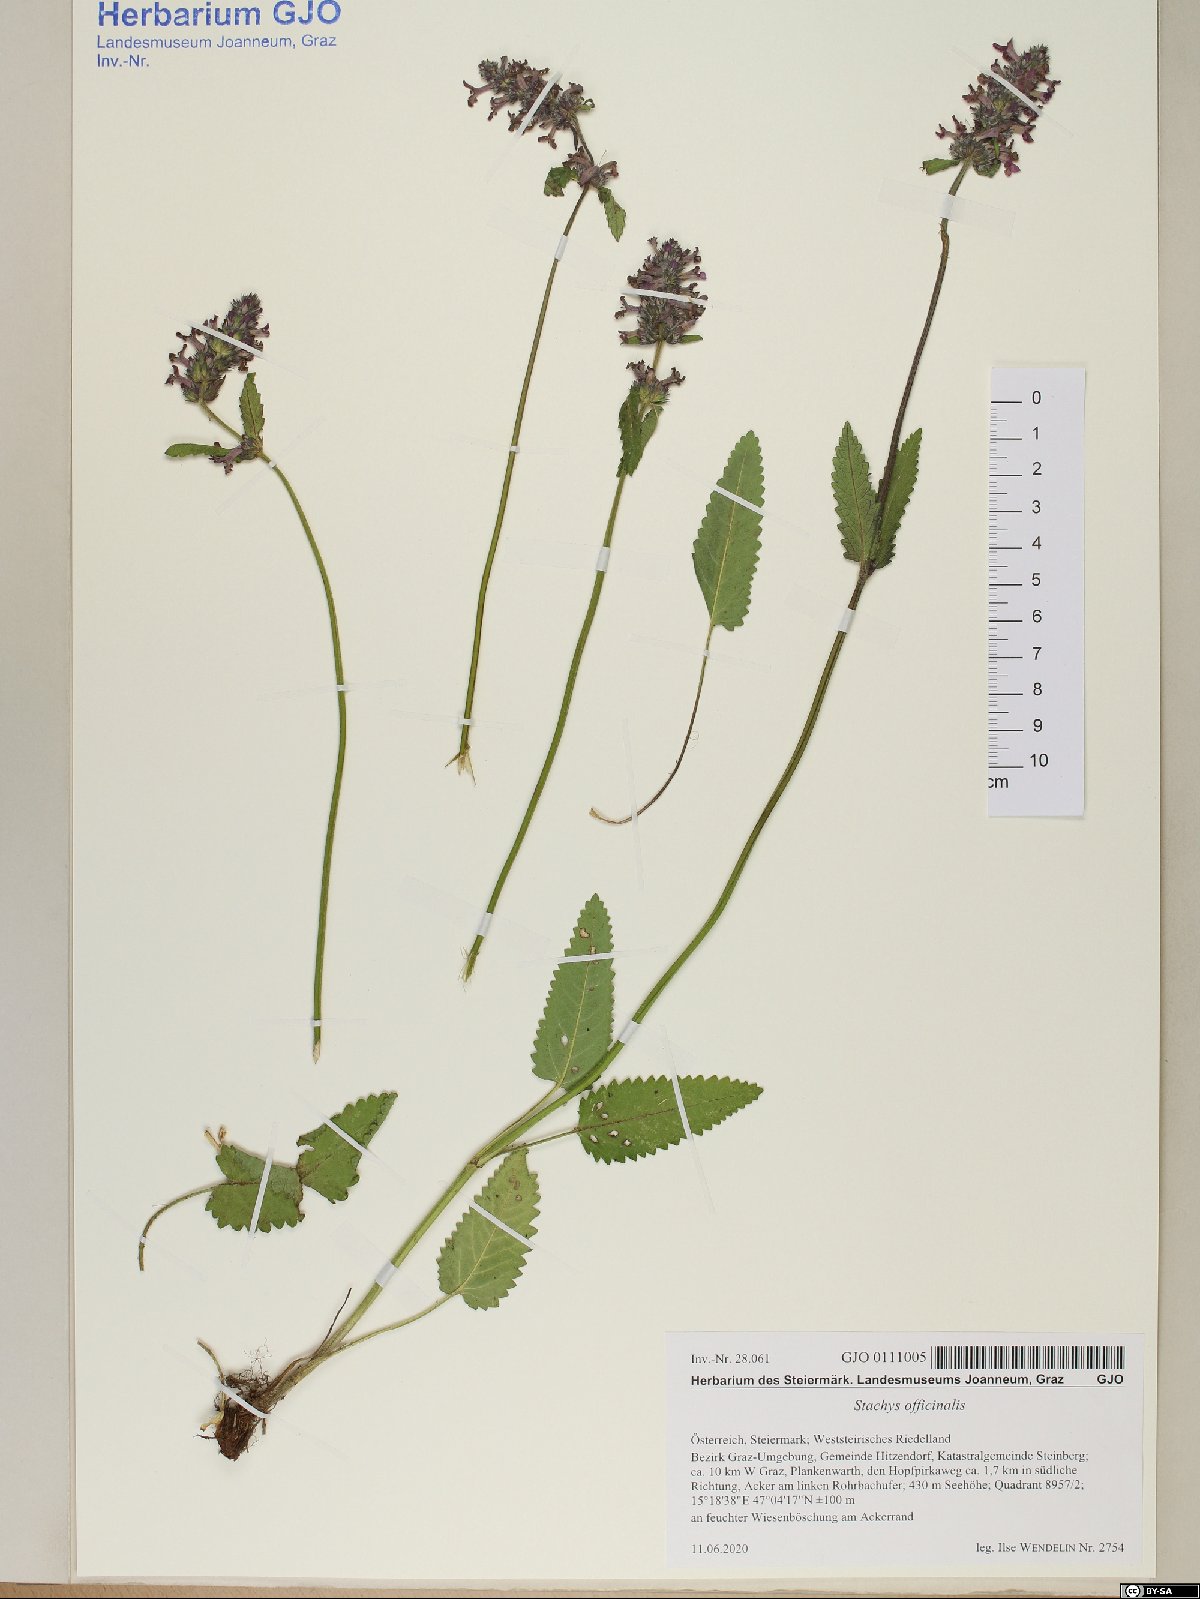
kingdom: Plantae
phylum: Tracheophyta
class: Magnoliopsida
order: Lamiales
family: Lamiaceae
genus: Betonica
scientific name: Betonica officinalis
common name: Bishop's-wort
